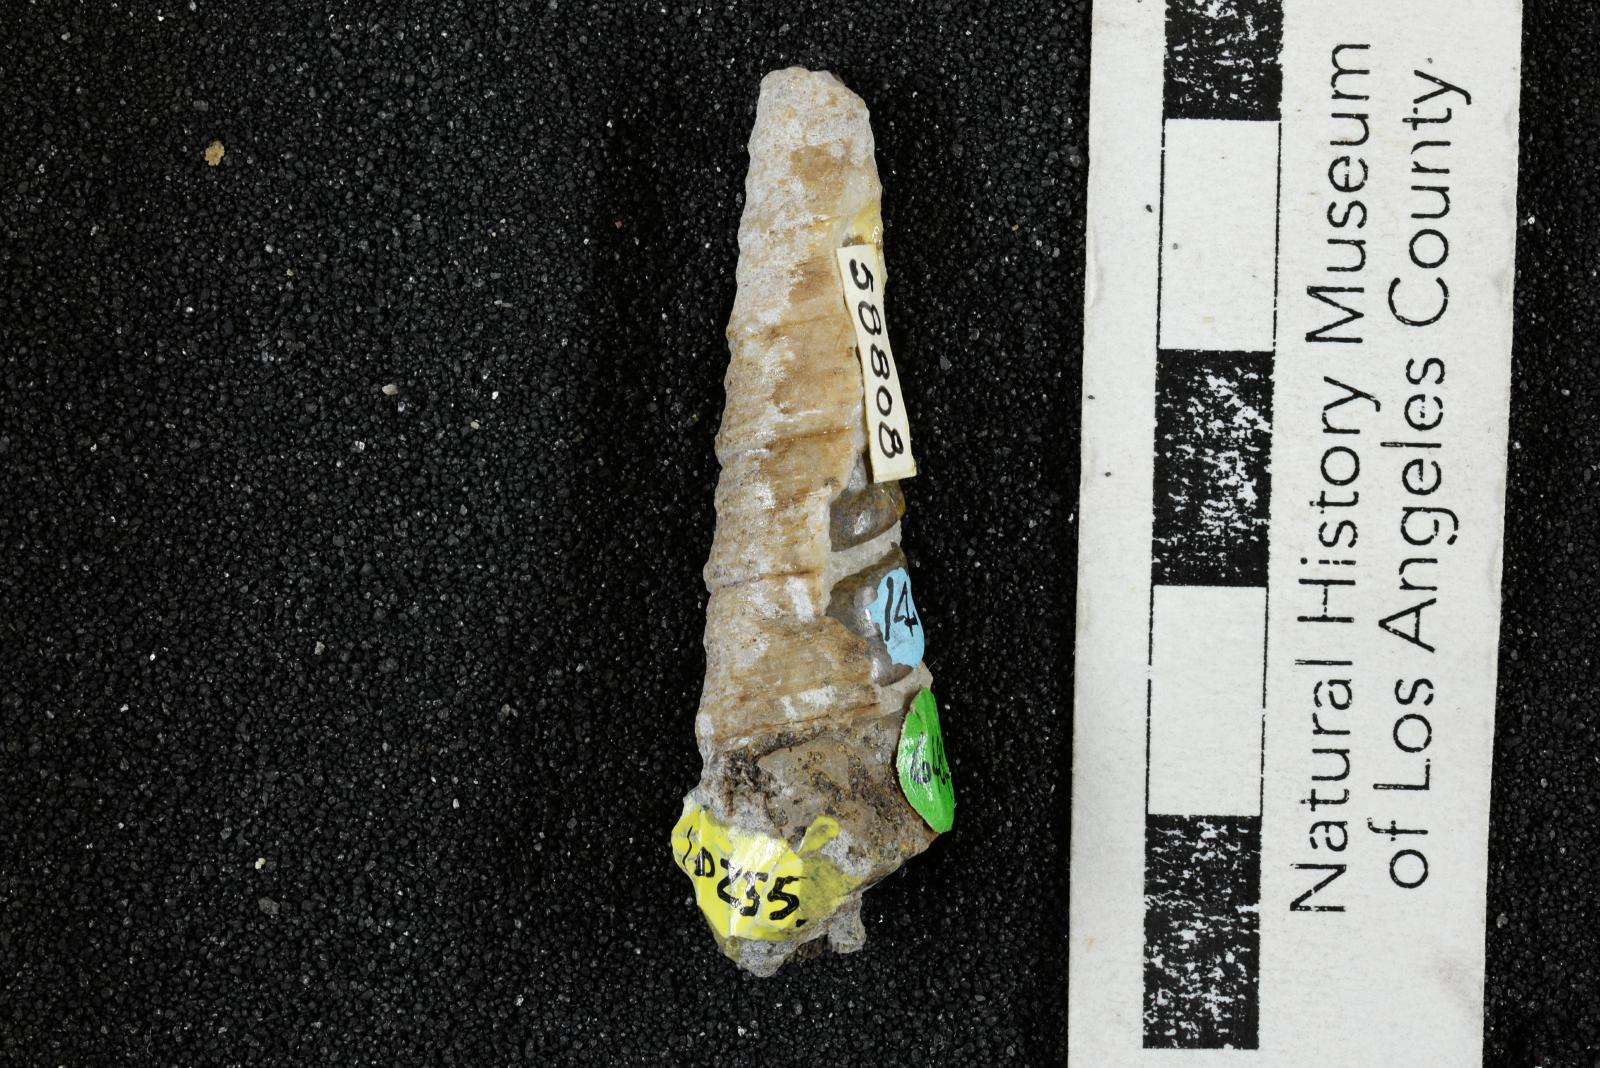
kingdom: Animalia
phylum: Mollusca
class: Gastropoda
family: Turritellidae
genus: Turritella
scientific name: Turritella chaneyi
